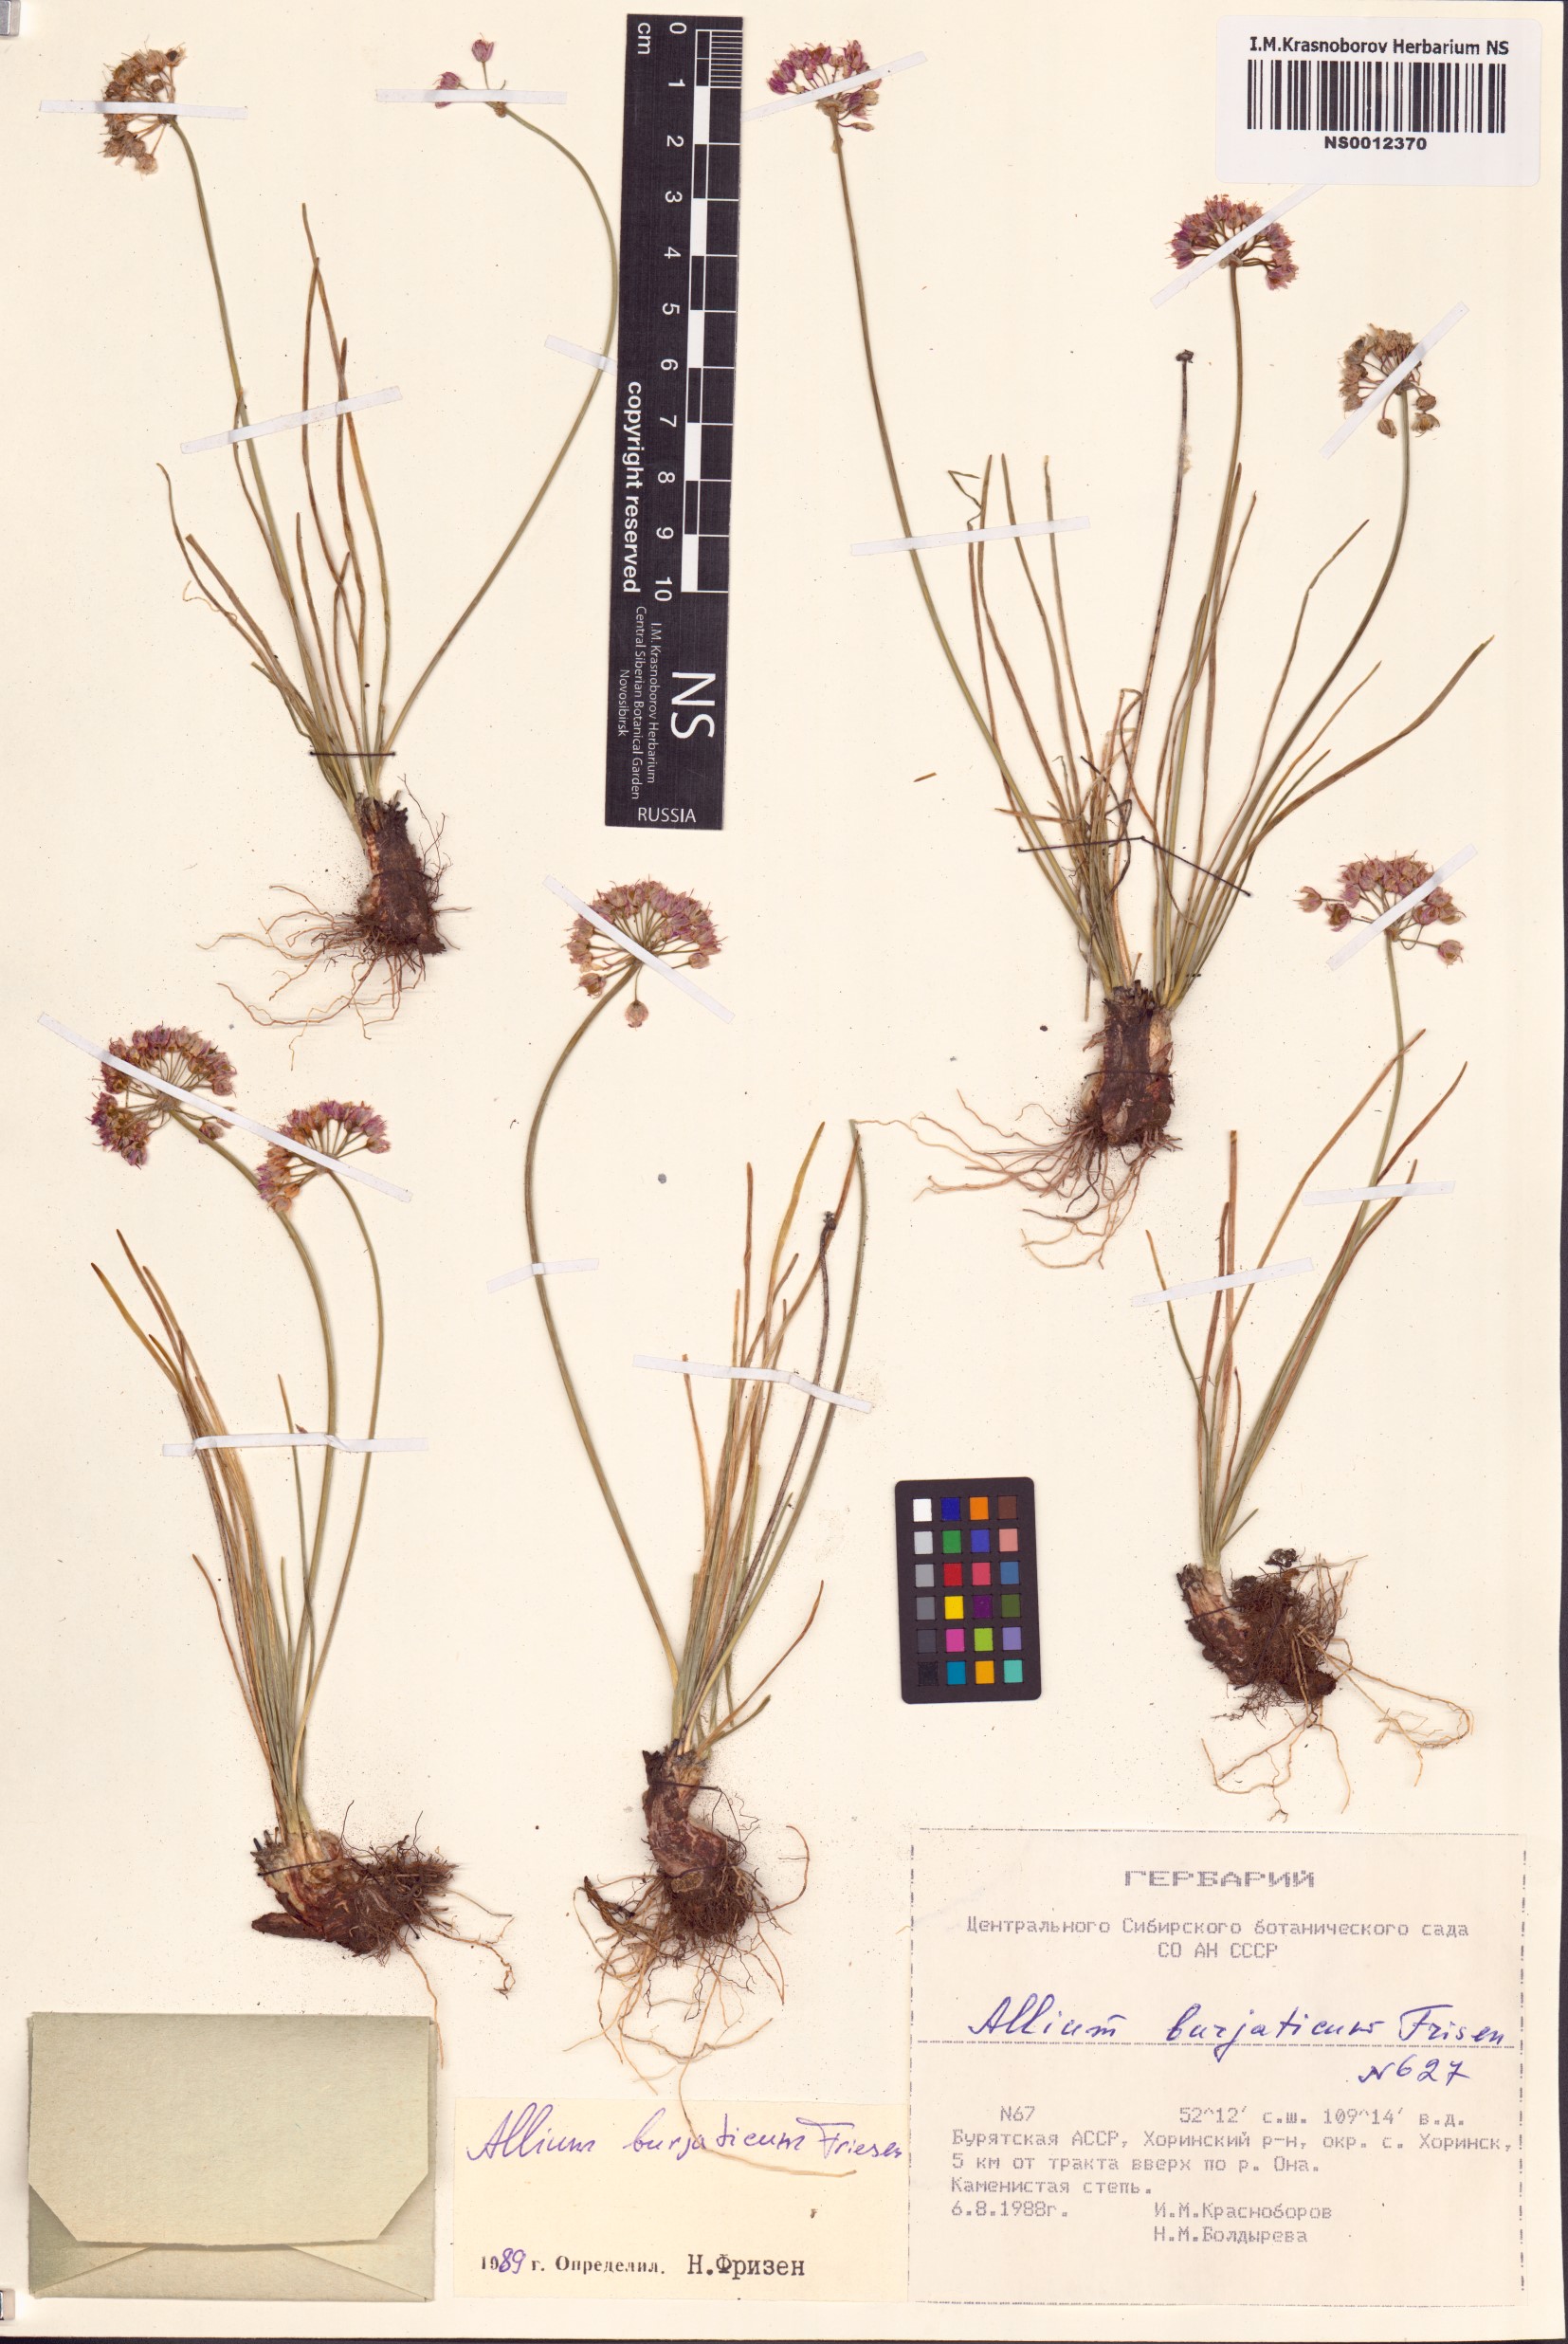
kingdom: Plantae
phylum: Tracheophyta
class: Liliopsida
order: Asparagales
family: Amaryllidaceae
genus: Allium
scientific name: Allium burjaticum
